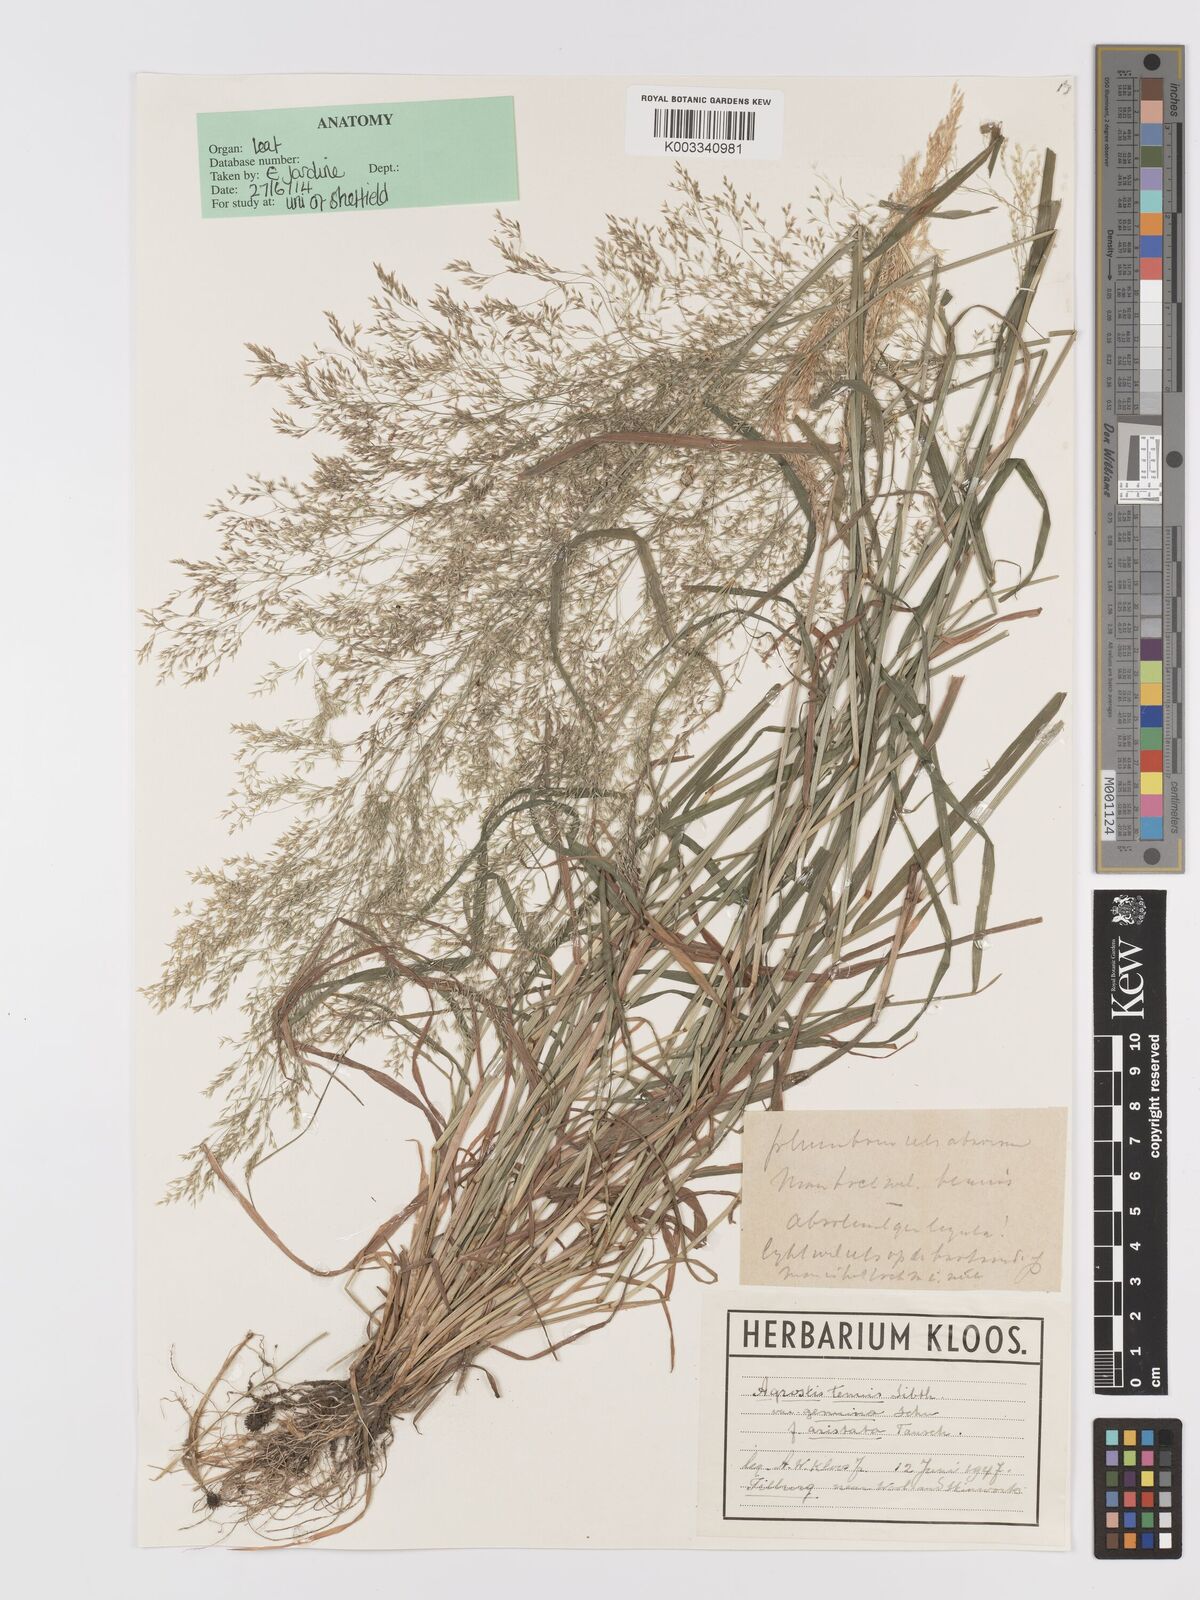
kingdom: Plantae
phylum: Tracheophyta
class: Liliopsida
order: Poales
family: Poaceae
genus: Agrostis
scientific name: Agrostis capillaris
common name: Colonial bentgrass
